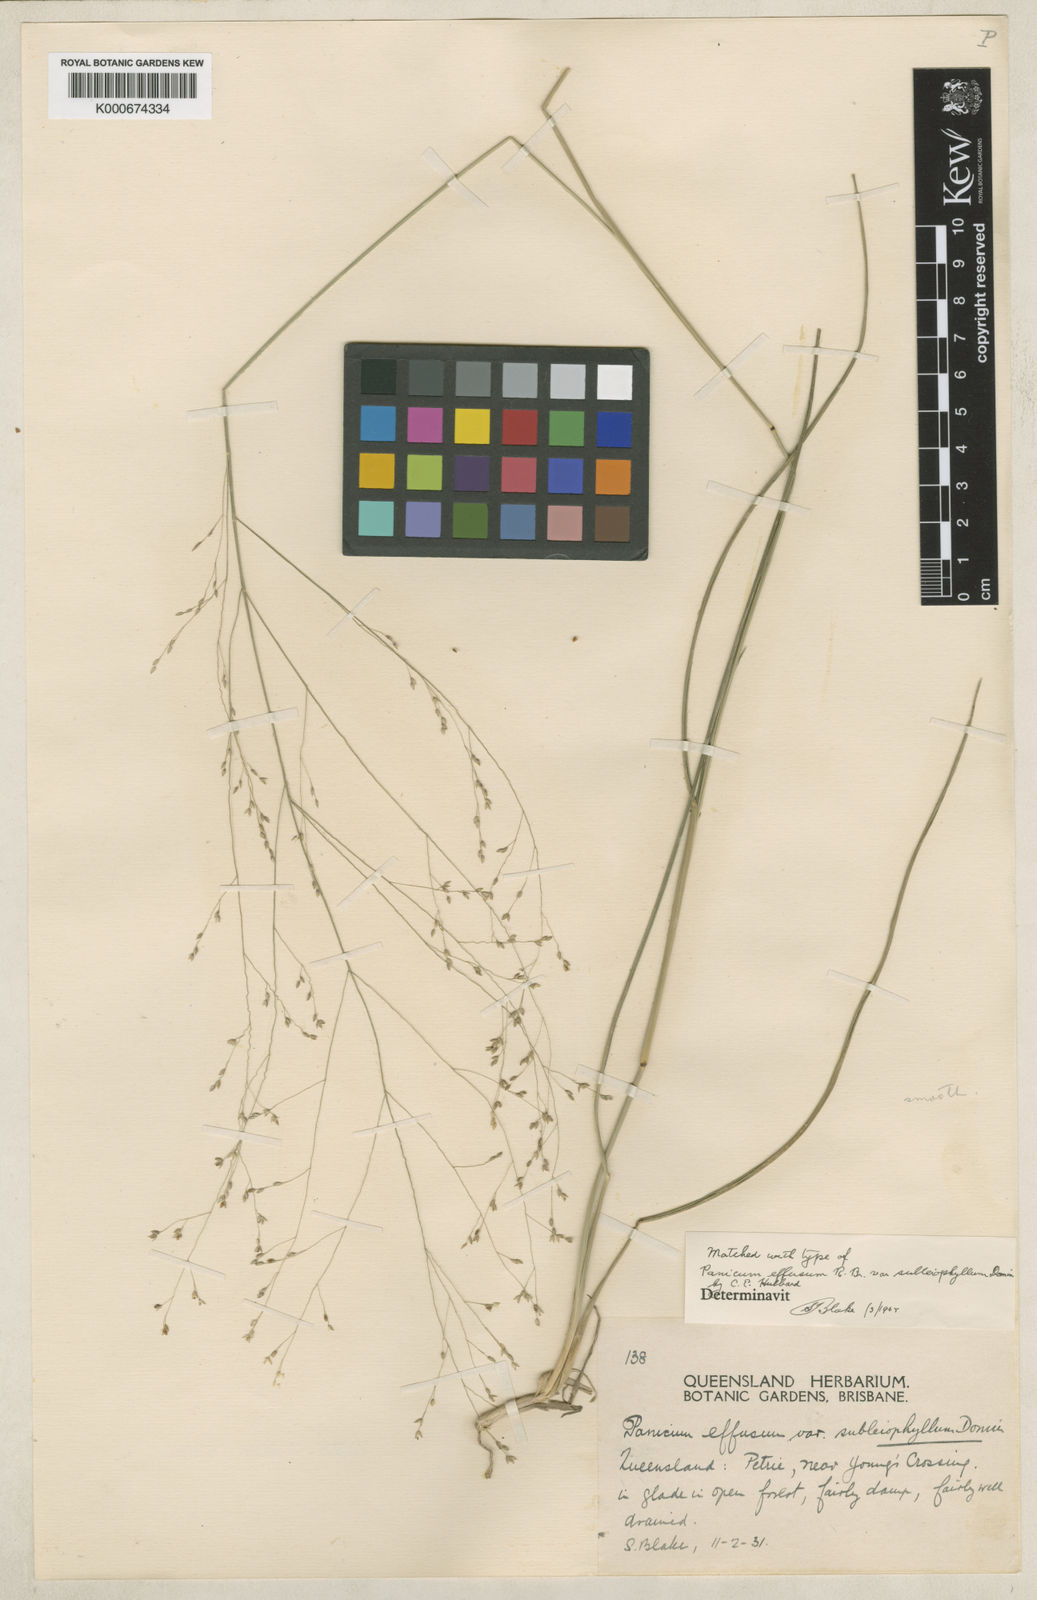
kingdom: Plantae
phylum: Tracheophyta
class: Liliopsida
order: Poales
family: Poaceae
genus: Panicum
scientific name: Panicum effusum
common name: Hairy panic grass
